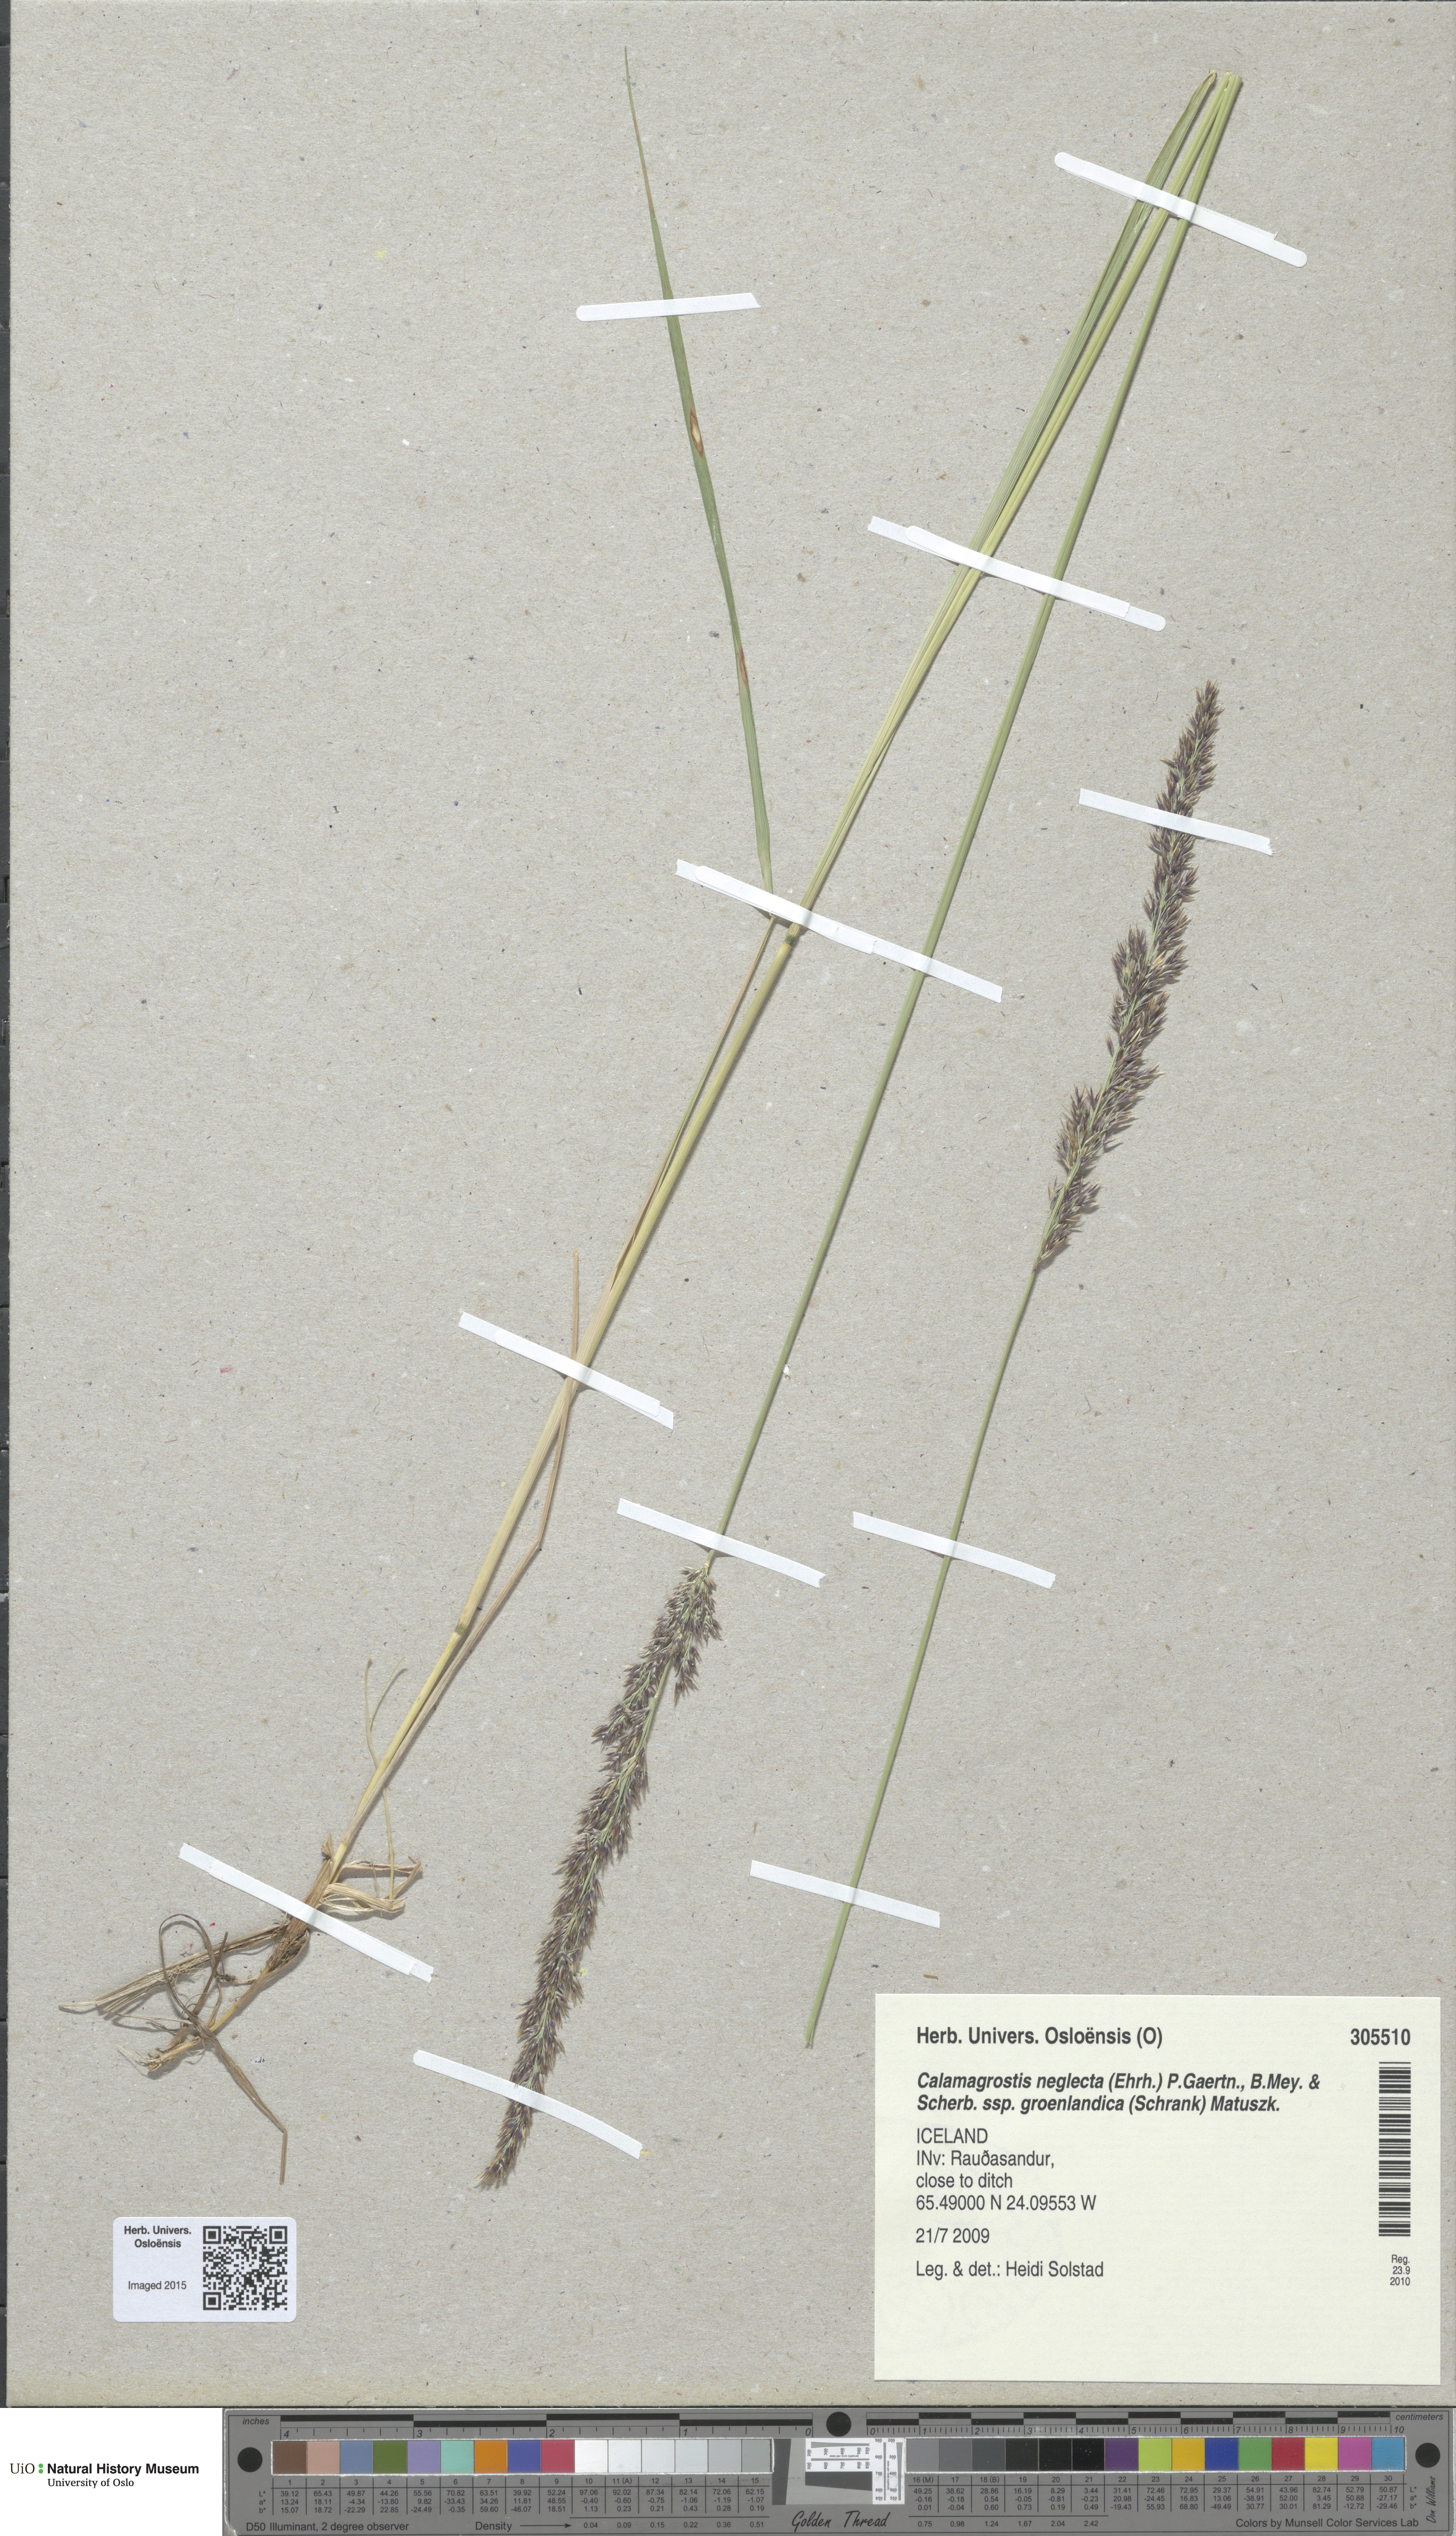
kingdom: Plantae
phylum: Tracheophyta
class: Liliopsida
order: Poales
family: Poaceae
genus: Calamagrostis
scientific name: Calamagrostis stricta
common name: Narrow small-reed
